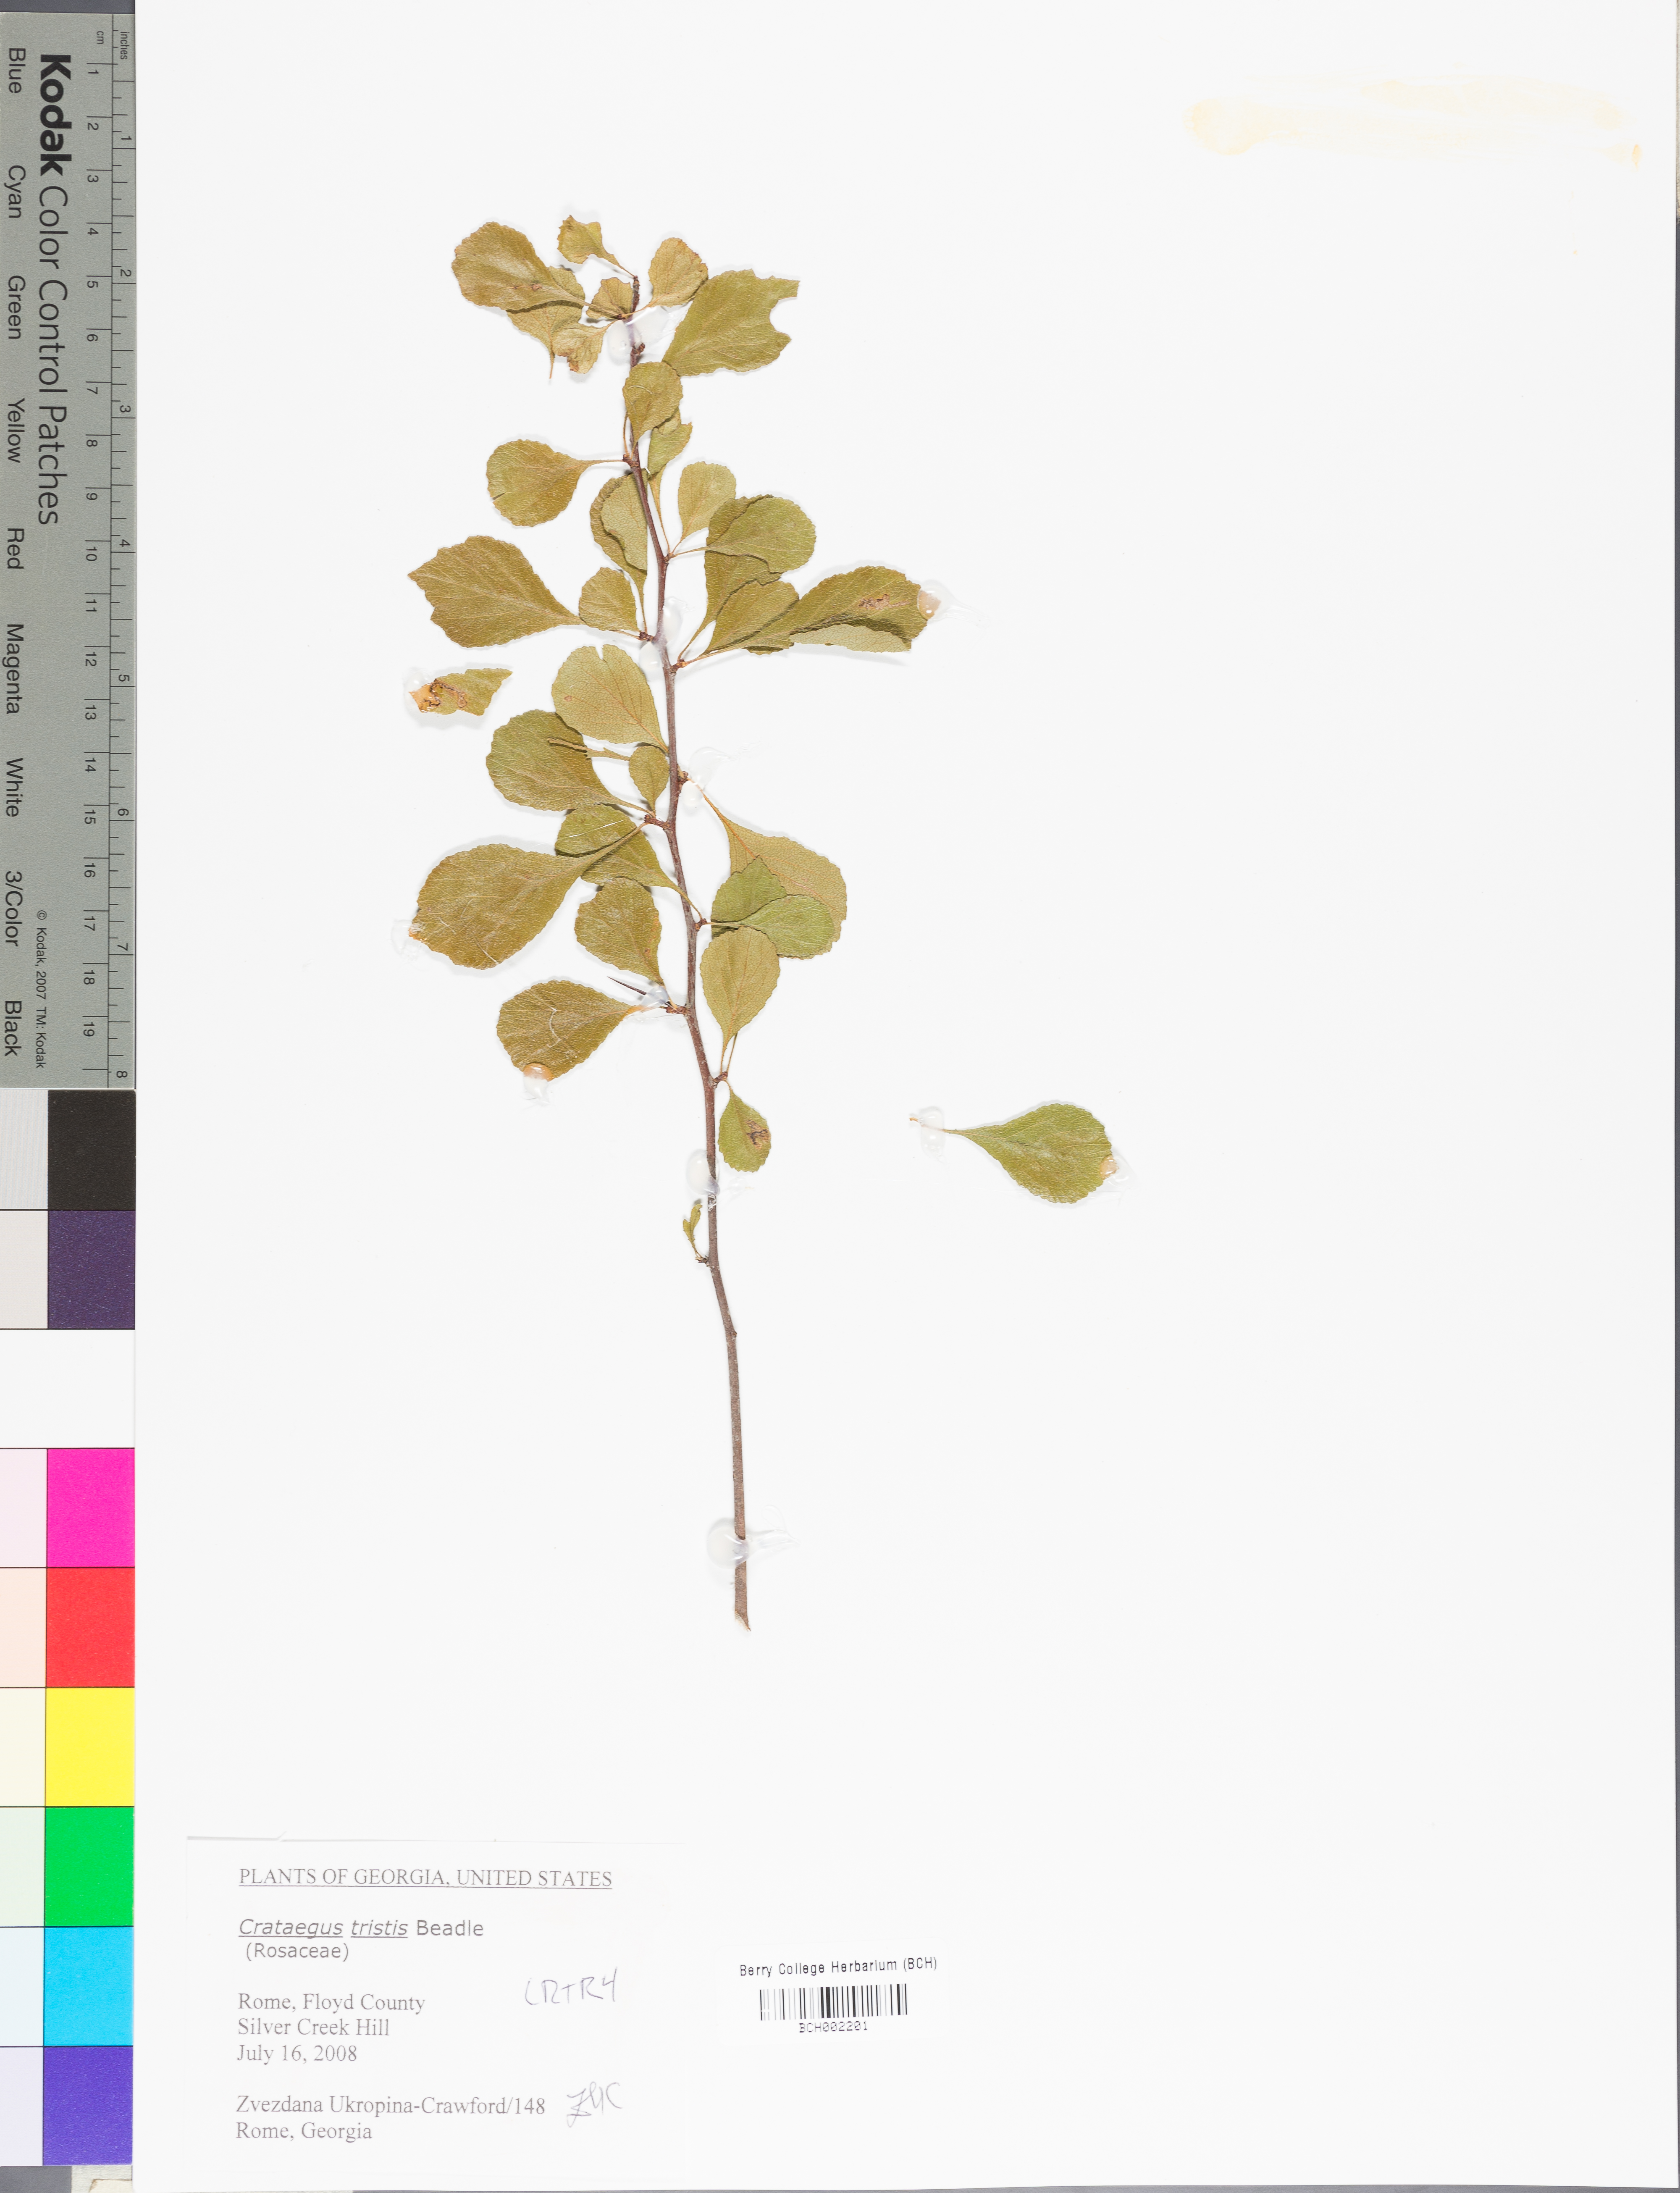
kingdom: Plantae
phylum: Tracheophyta
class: Magnoliopsida
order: Rosales
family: Rosaceae
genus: Crataegus
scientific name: Crataegus aprica
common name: Sunny hawthorn
